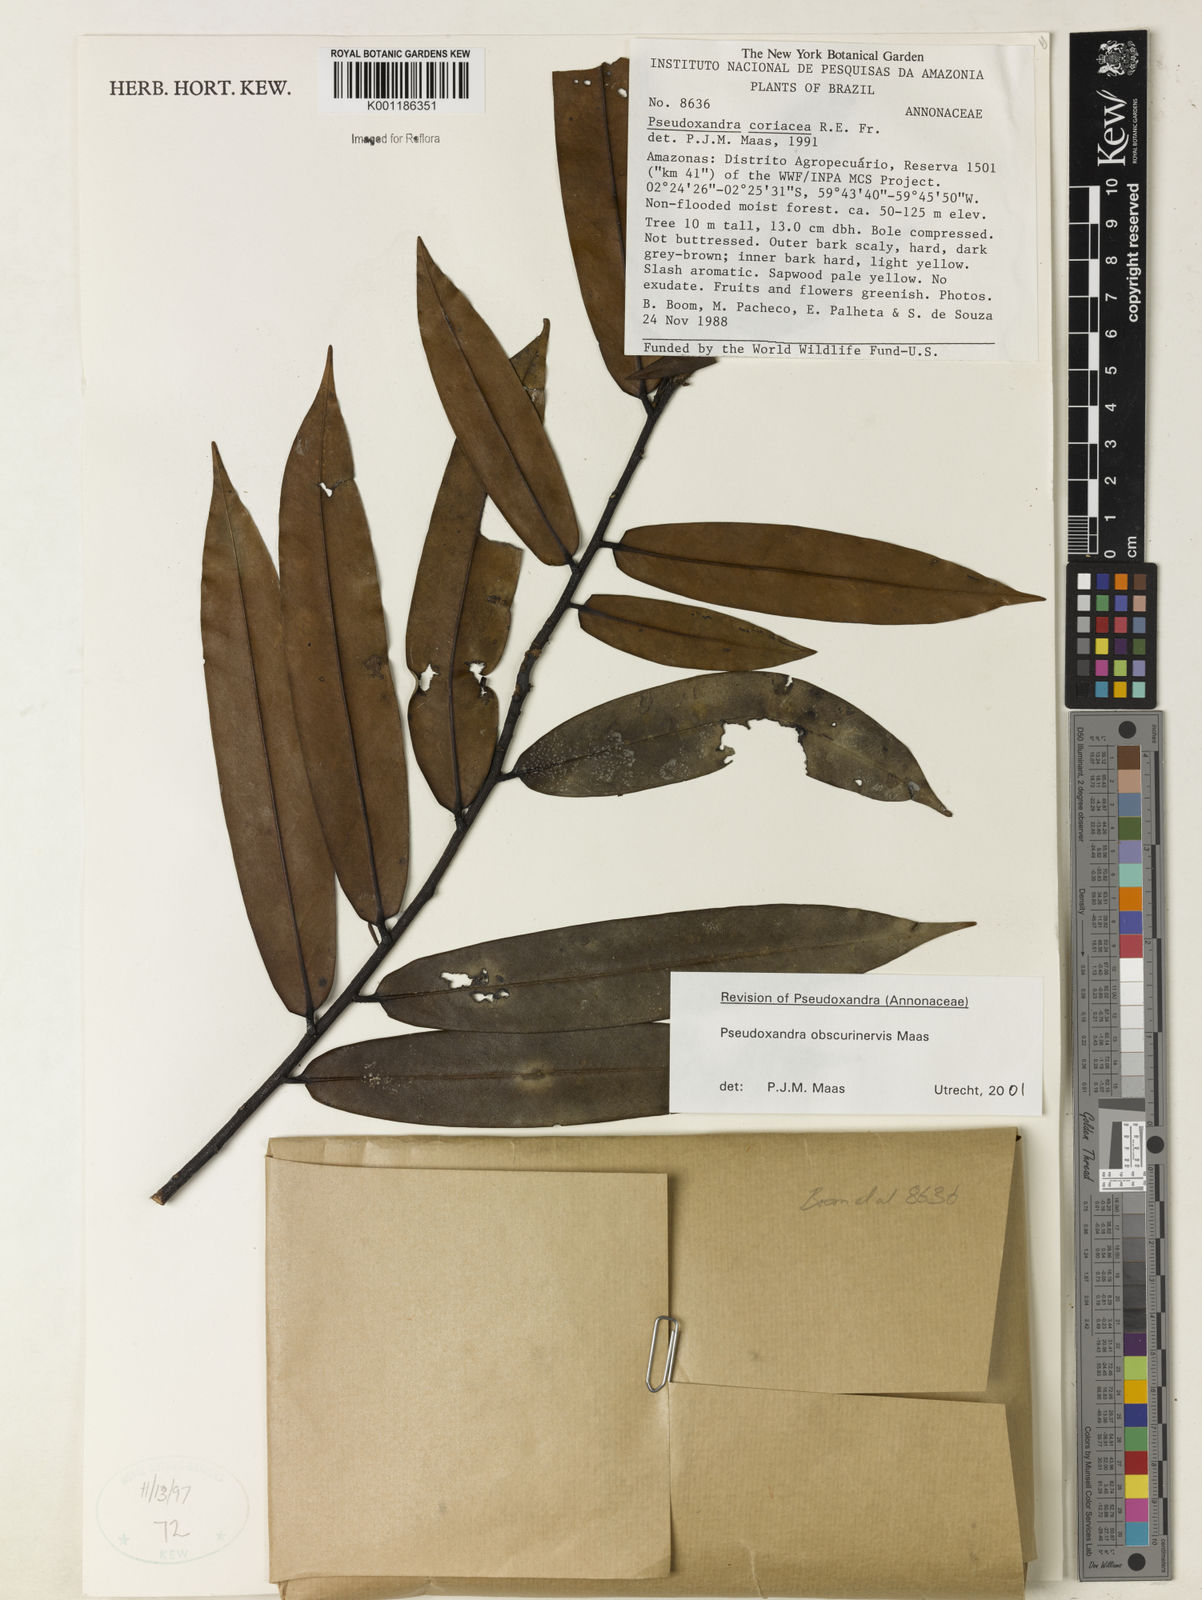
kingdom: Plantae
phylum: Tracheophyta
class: Magnoliopsida
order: Magnoliales
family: Annonaceae
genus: Pseudoxandra
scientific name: Pseudoxandra obscurinervis
